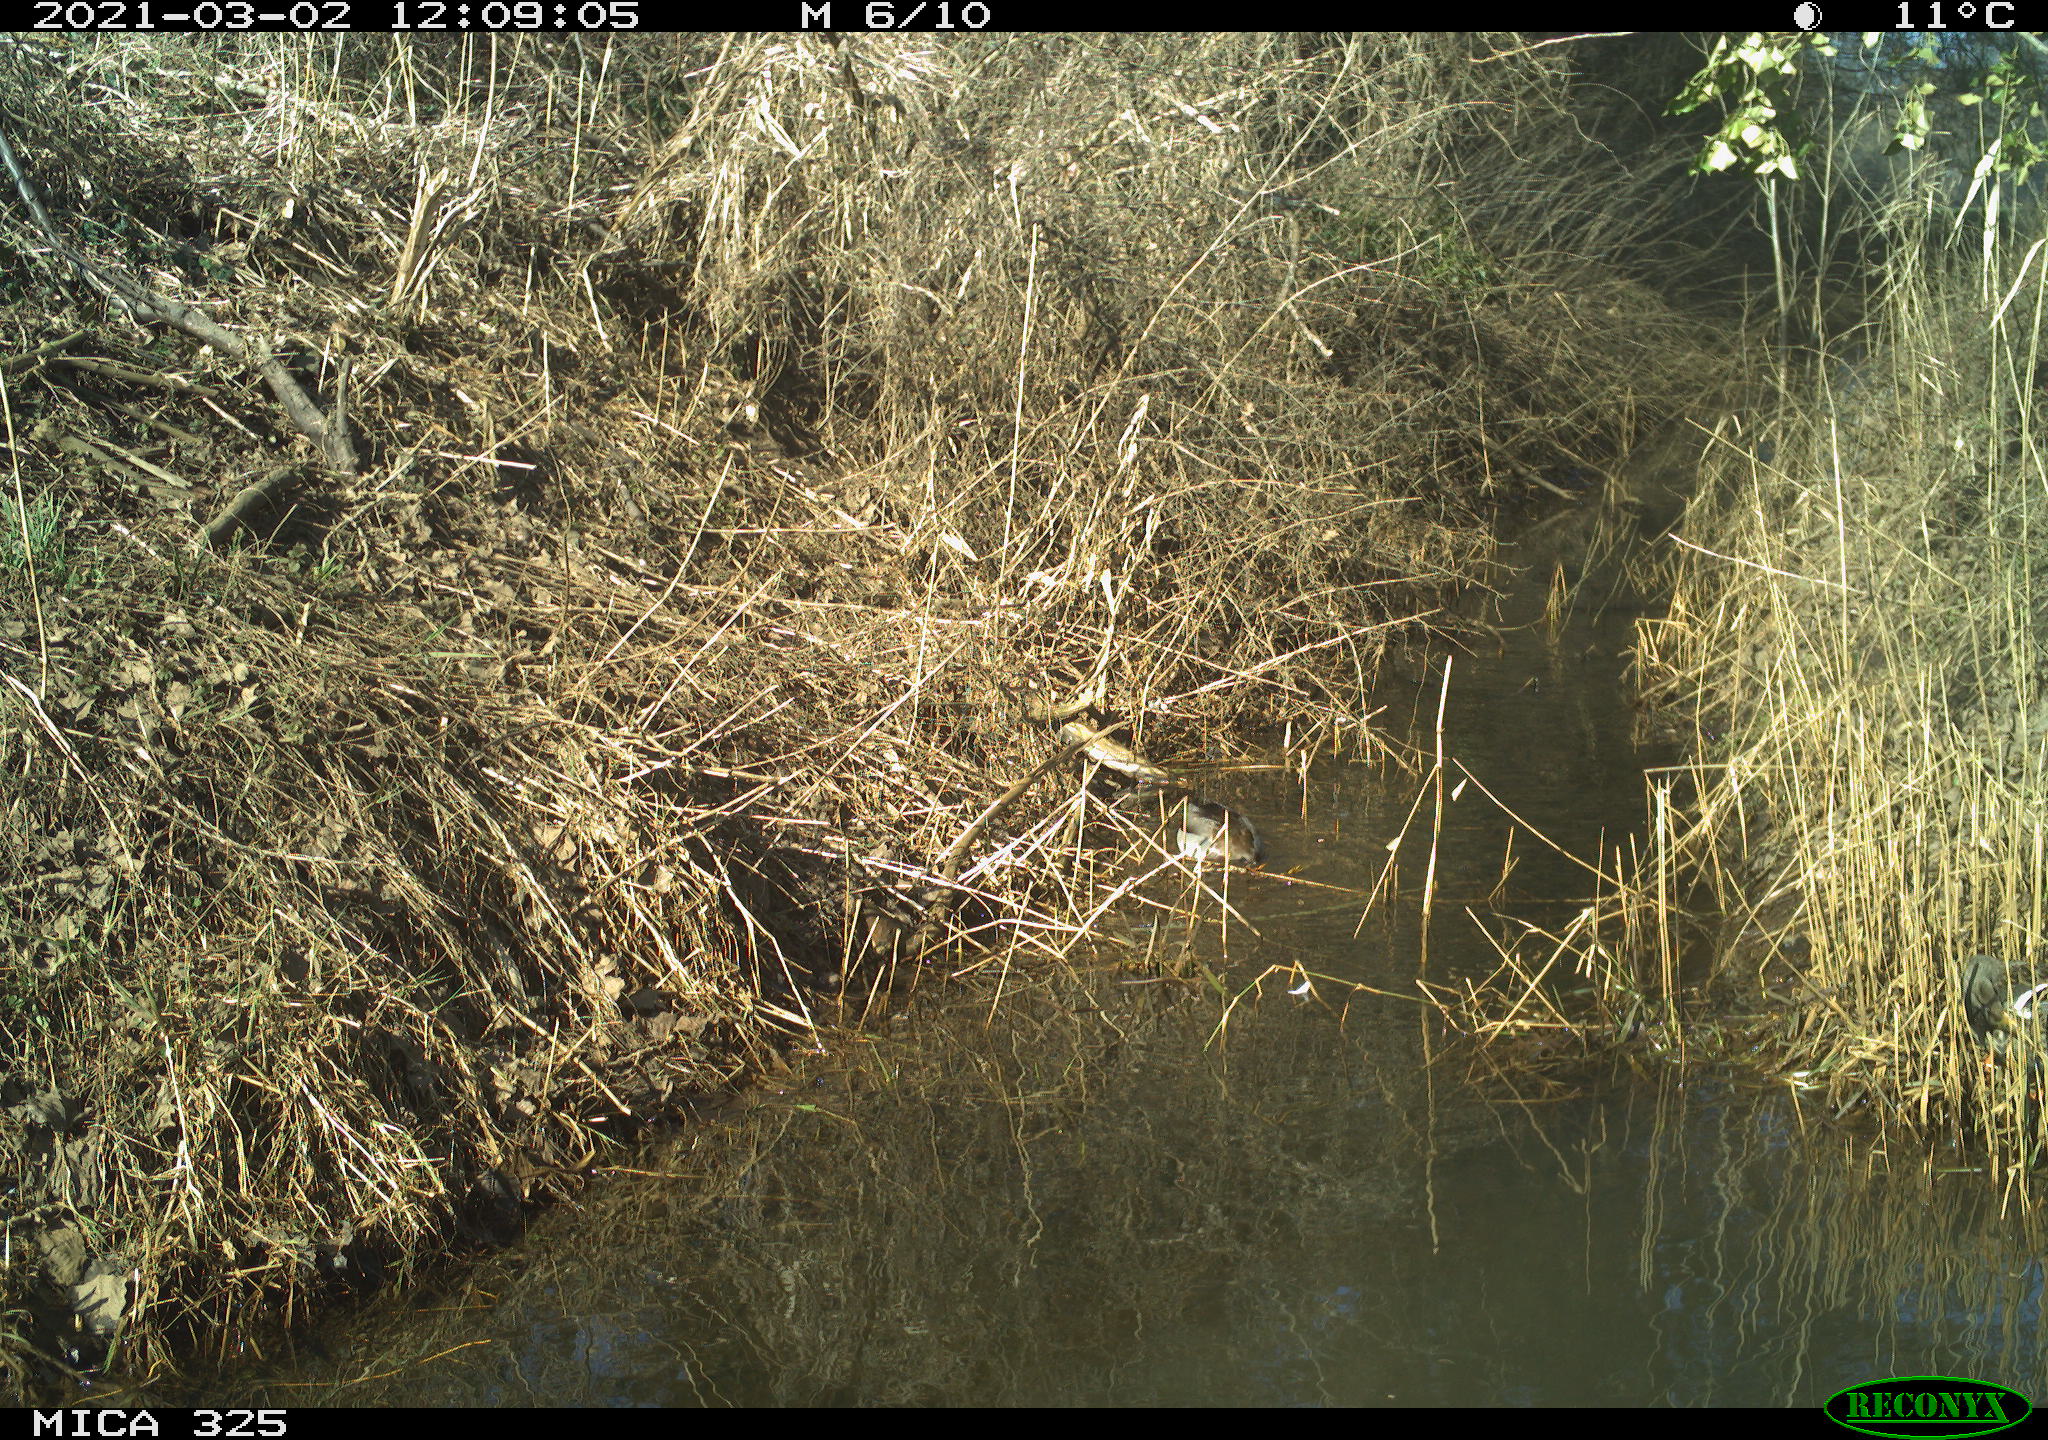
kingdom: Animalia
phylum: Chordata
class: Aves
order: Anseriformes
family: Anatidae
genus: Anas
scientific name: Anas platyrhynchos
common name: Mallard
